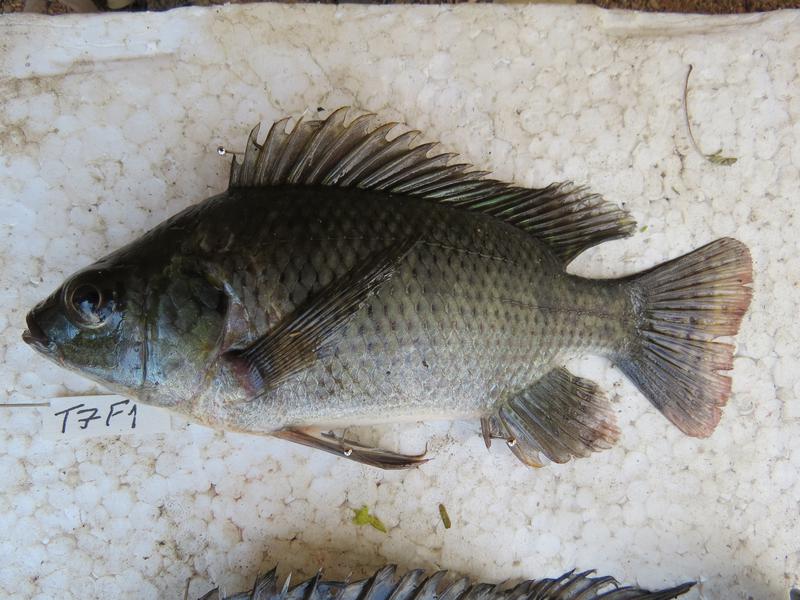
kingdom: Animalia
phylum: Chordata
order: Perciformes
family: Cichlidae
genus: Oreochromis
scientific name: Oreochromis niloticus
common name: Nile tilapia
